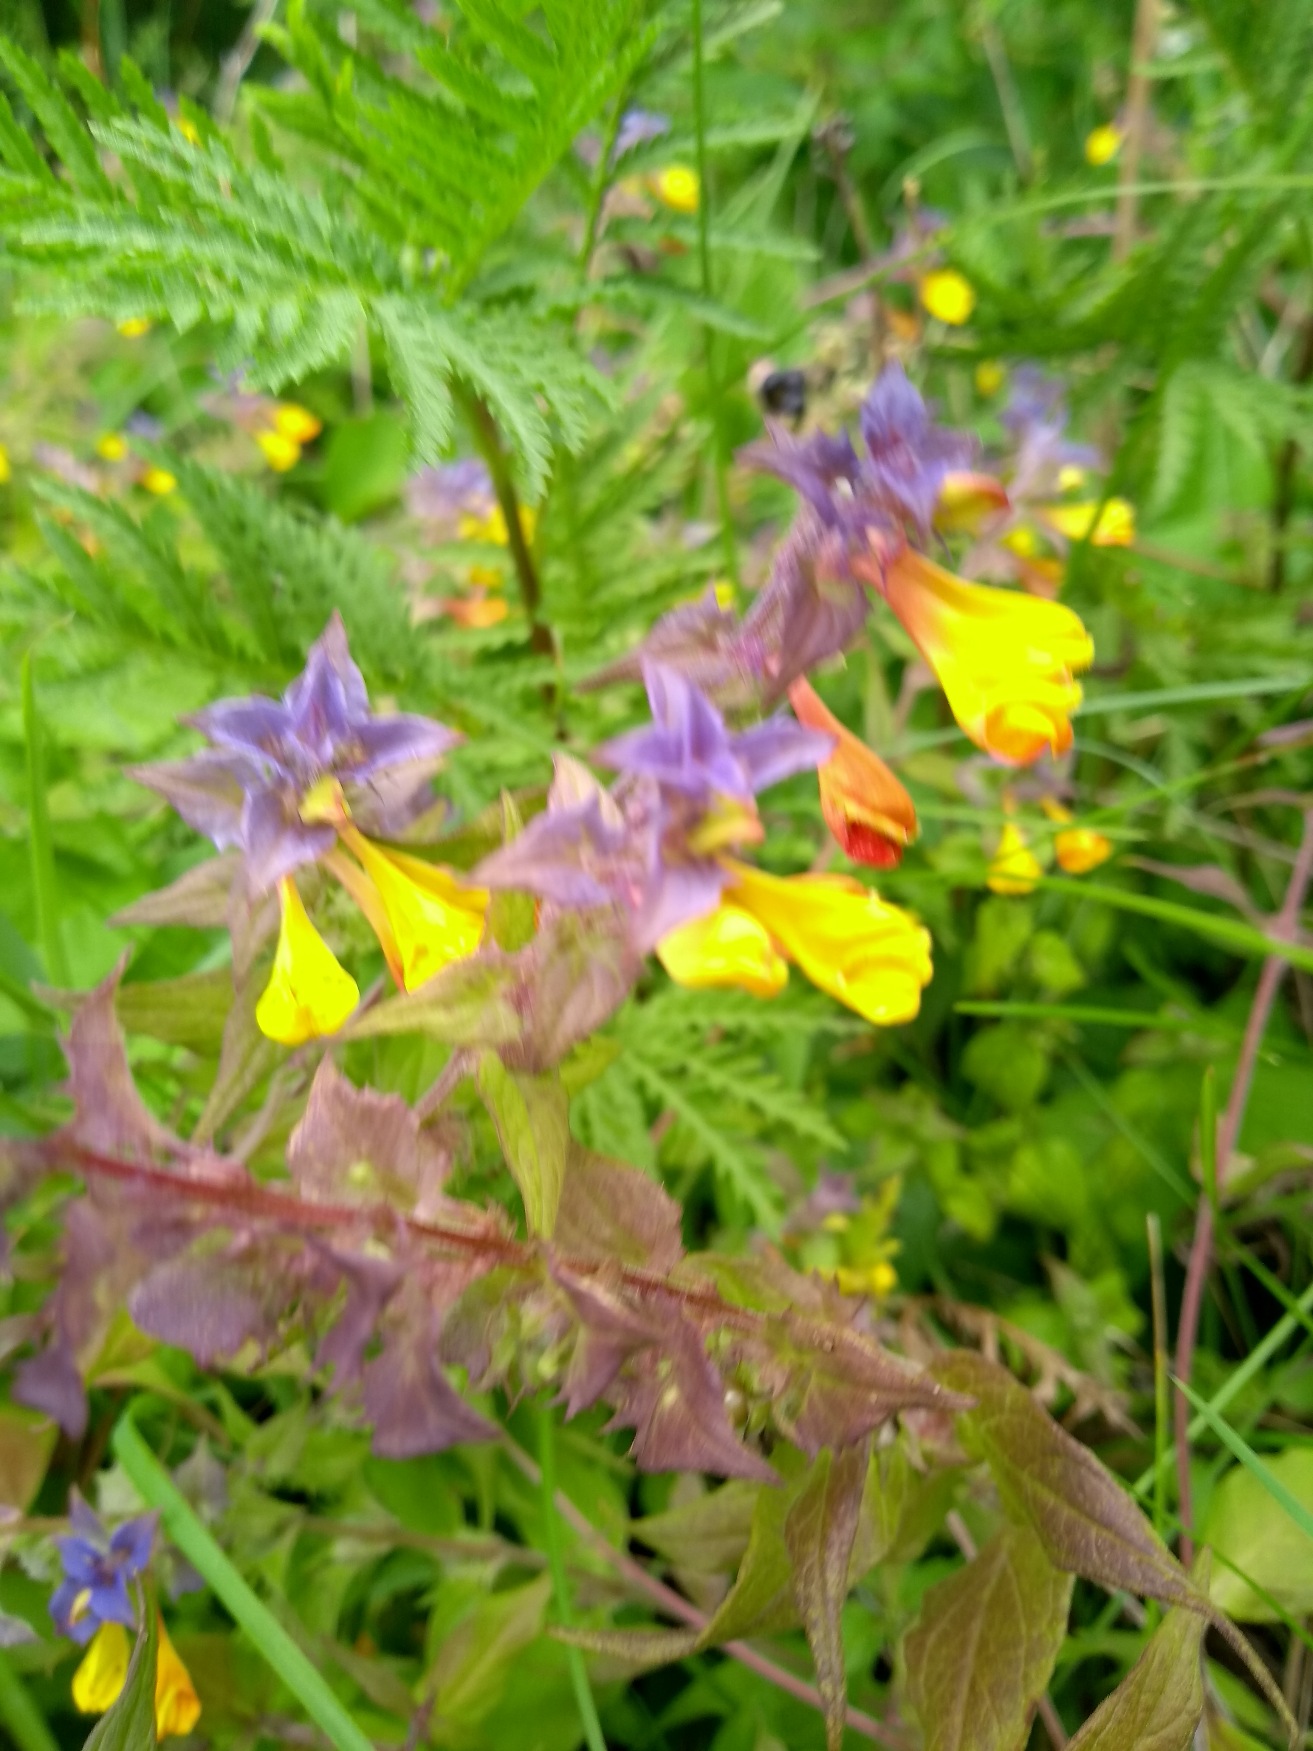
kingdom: Plantae
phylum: Tracheophyta
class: Magnoliopsida
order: Lamiales
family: Orobanchaceae
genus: Melampyrum
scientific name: Melampyrum nemorosum
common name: Blåtoppet kohvede
